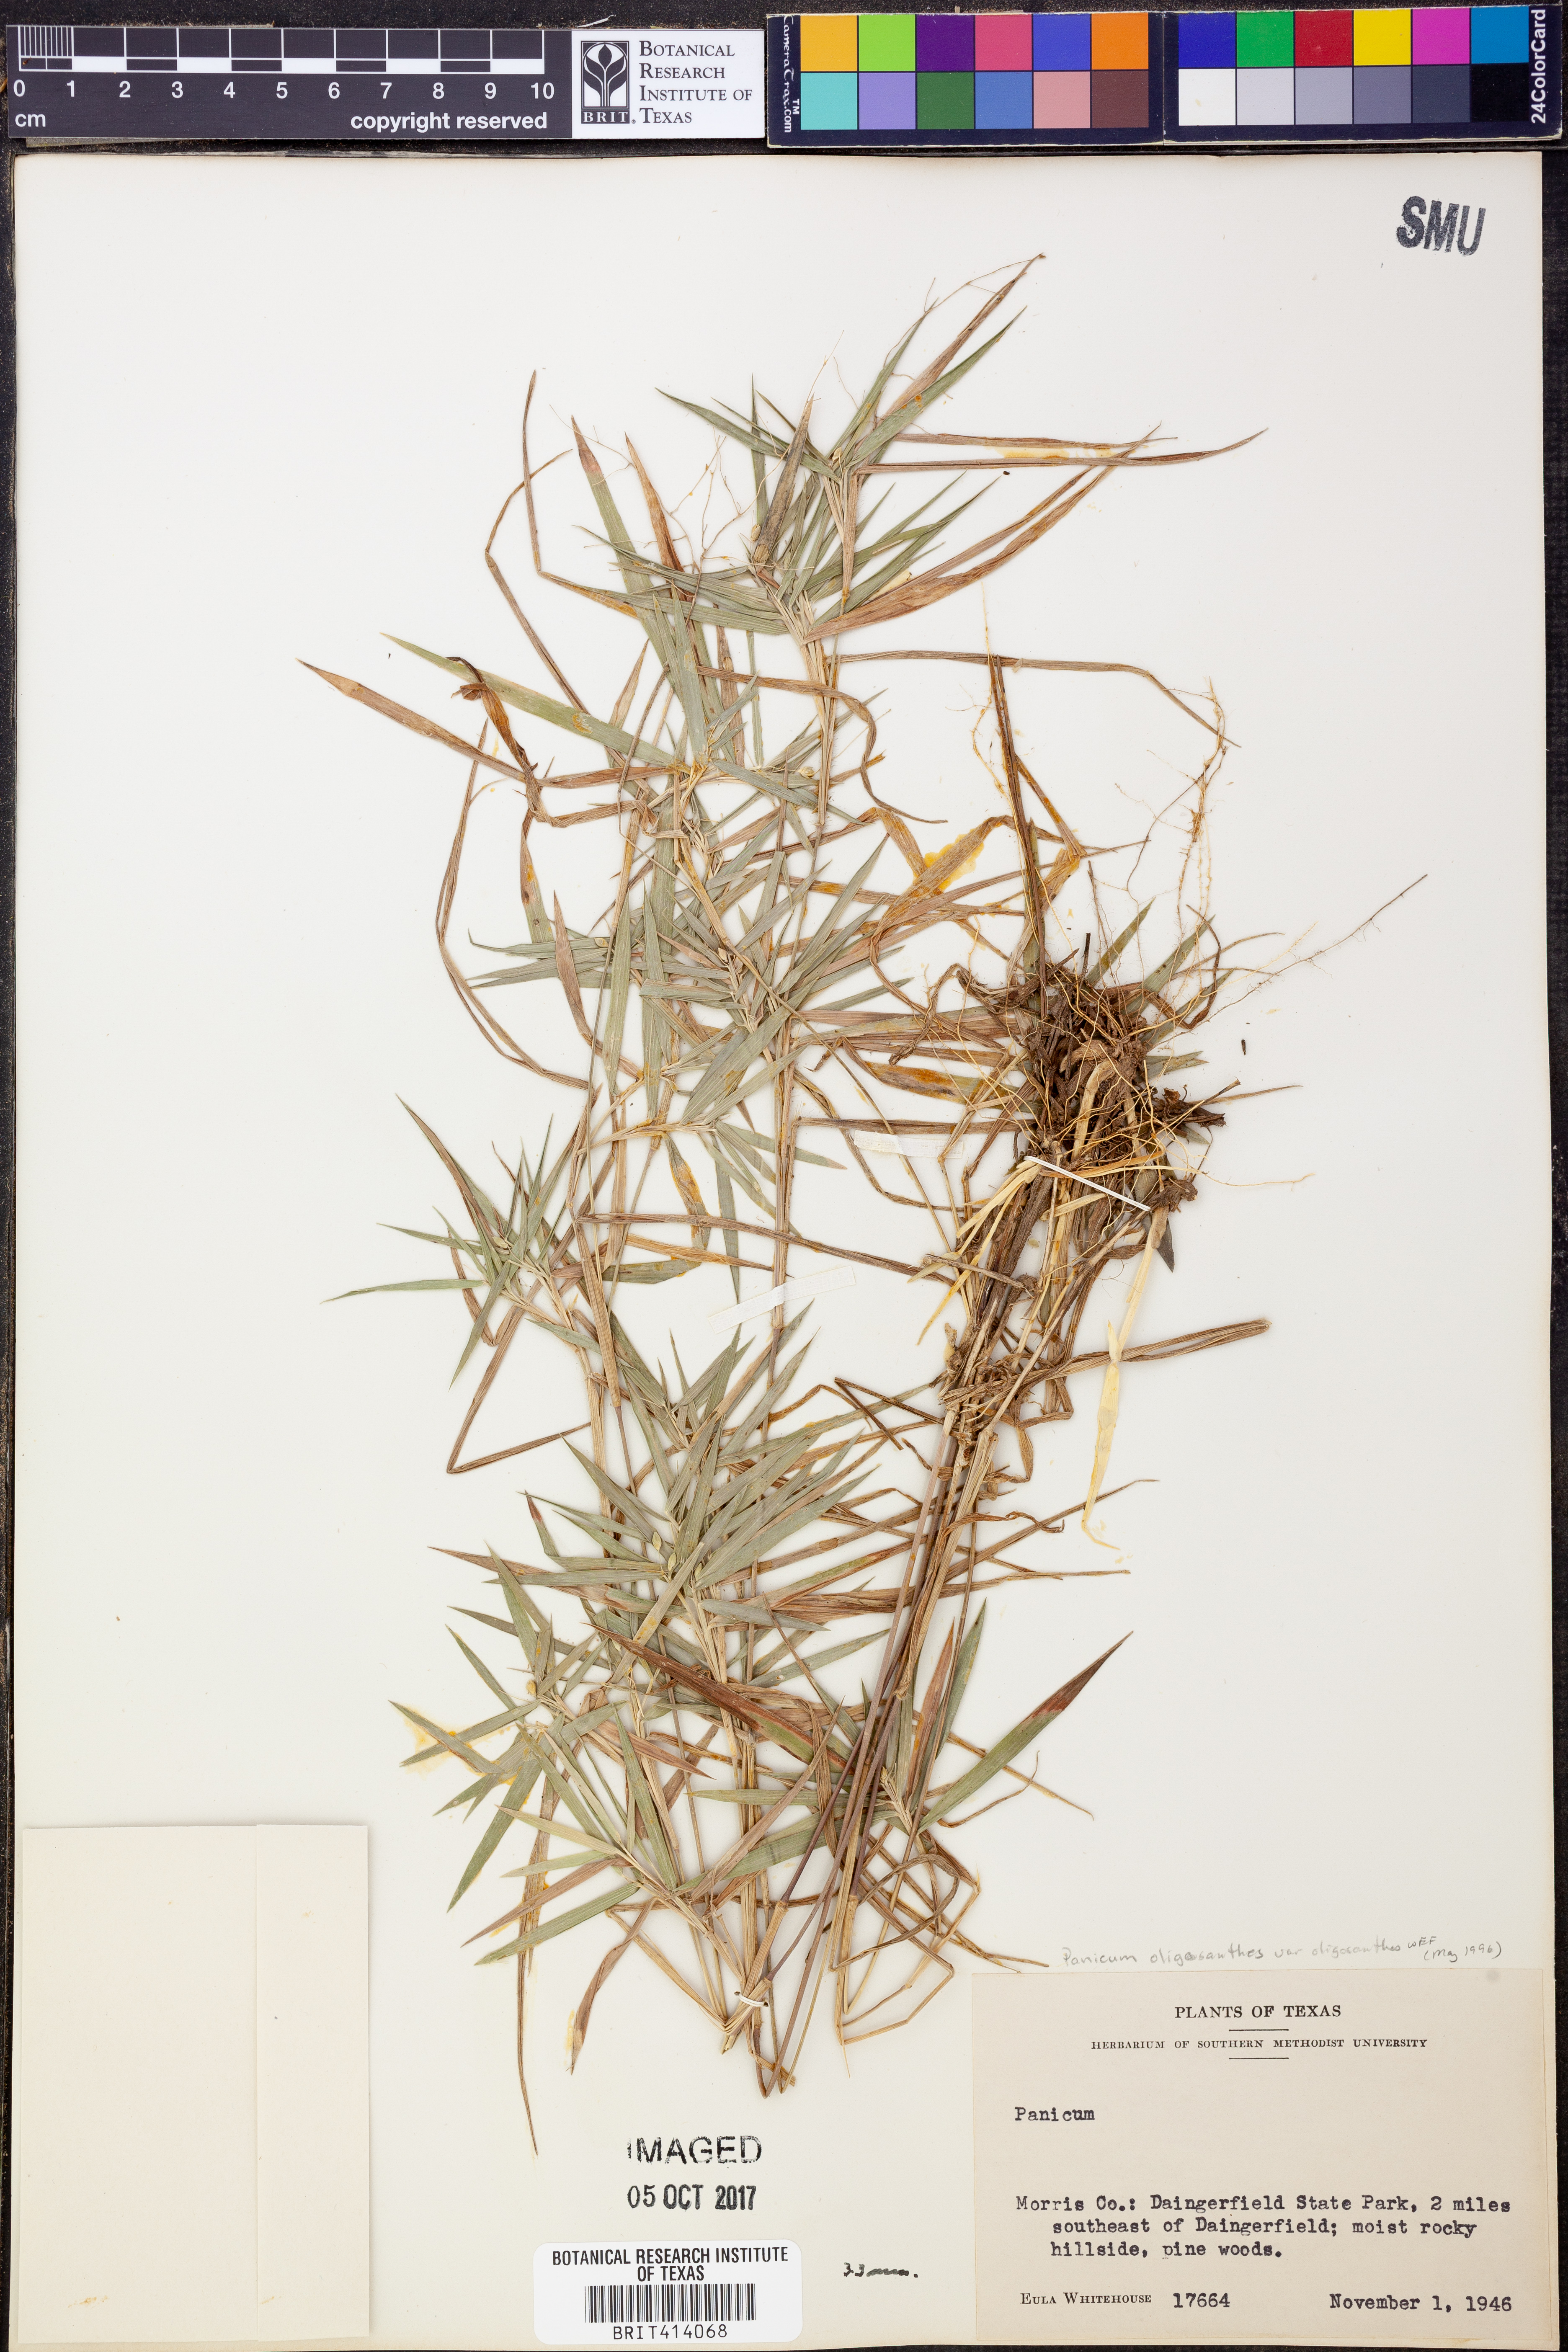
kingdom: Plantae
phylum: Tracheophyta
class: Liliopsida
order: Poales
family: Poaceae
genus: Dichanthelium
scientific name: Dichanthelium oligosanthes
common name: Few-anther obscuregrass
